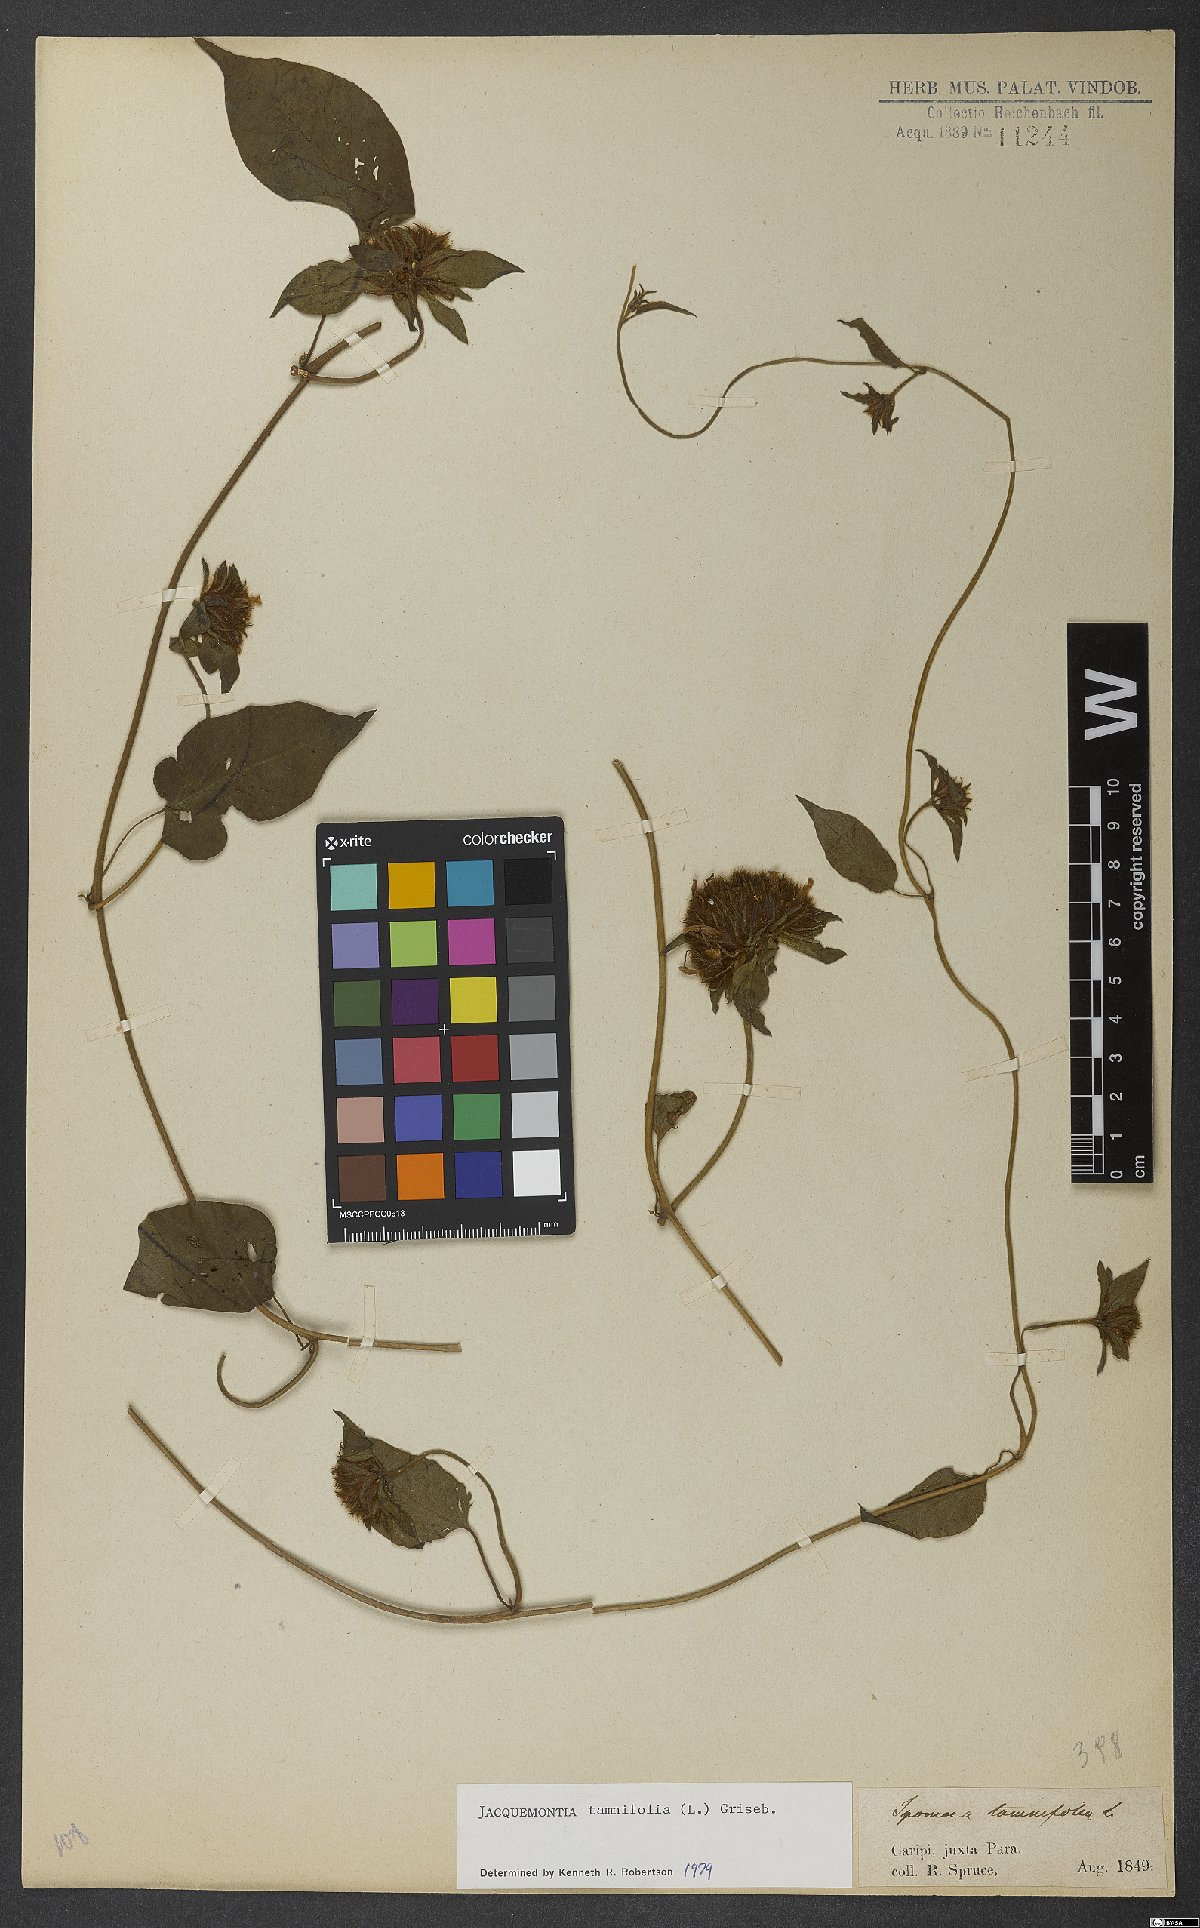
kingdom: Plantae
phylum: Tracheophyta
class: Magnoliopsida
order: Solanales
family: Convolvulaceae
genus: Jacquemontia
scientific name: Jacquemontia tamnifolia
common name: Hairy clustervine
